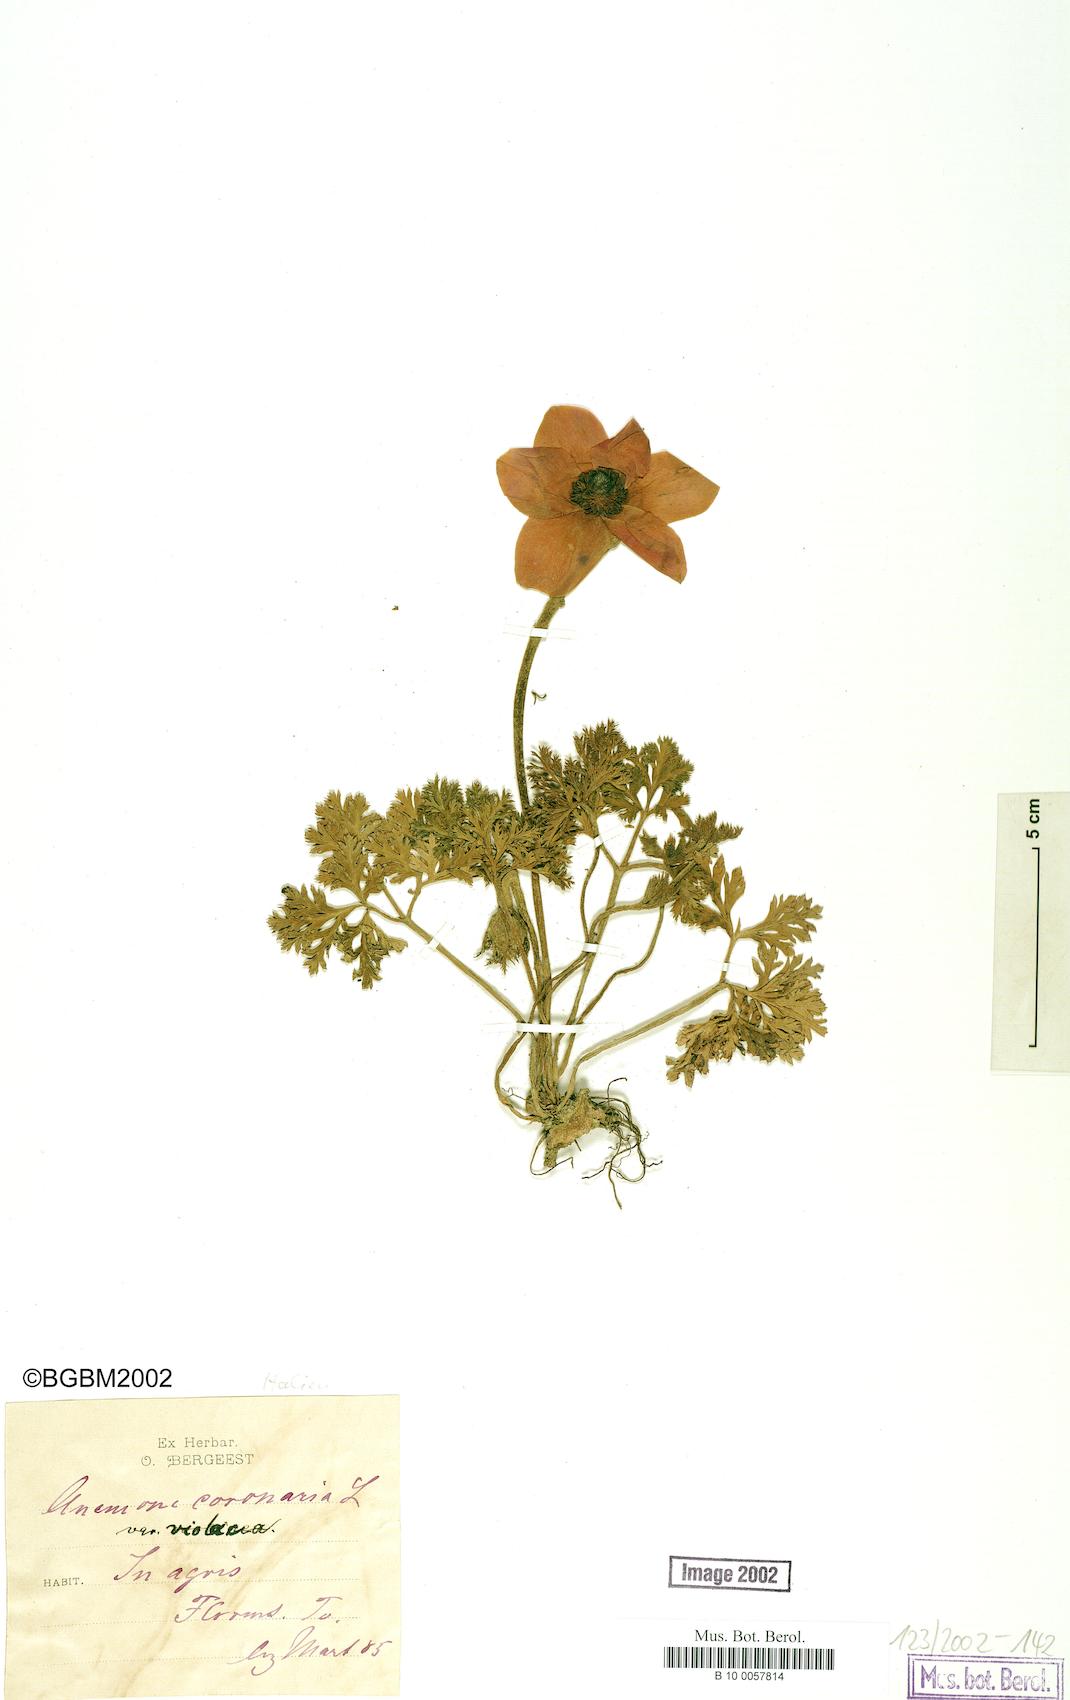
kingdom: Plantae
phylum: Tracheophyta
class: Magnoliopsida
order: Ranunculales
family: Ranunculaceae
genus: Anemone
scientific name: Anemone coronaria
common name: Poppy anemone
